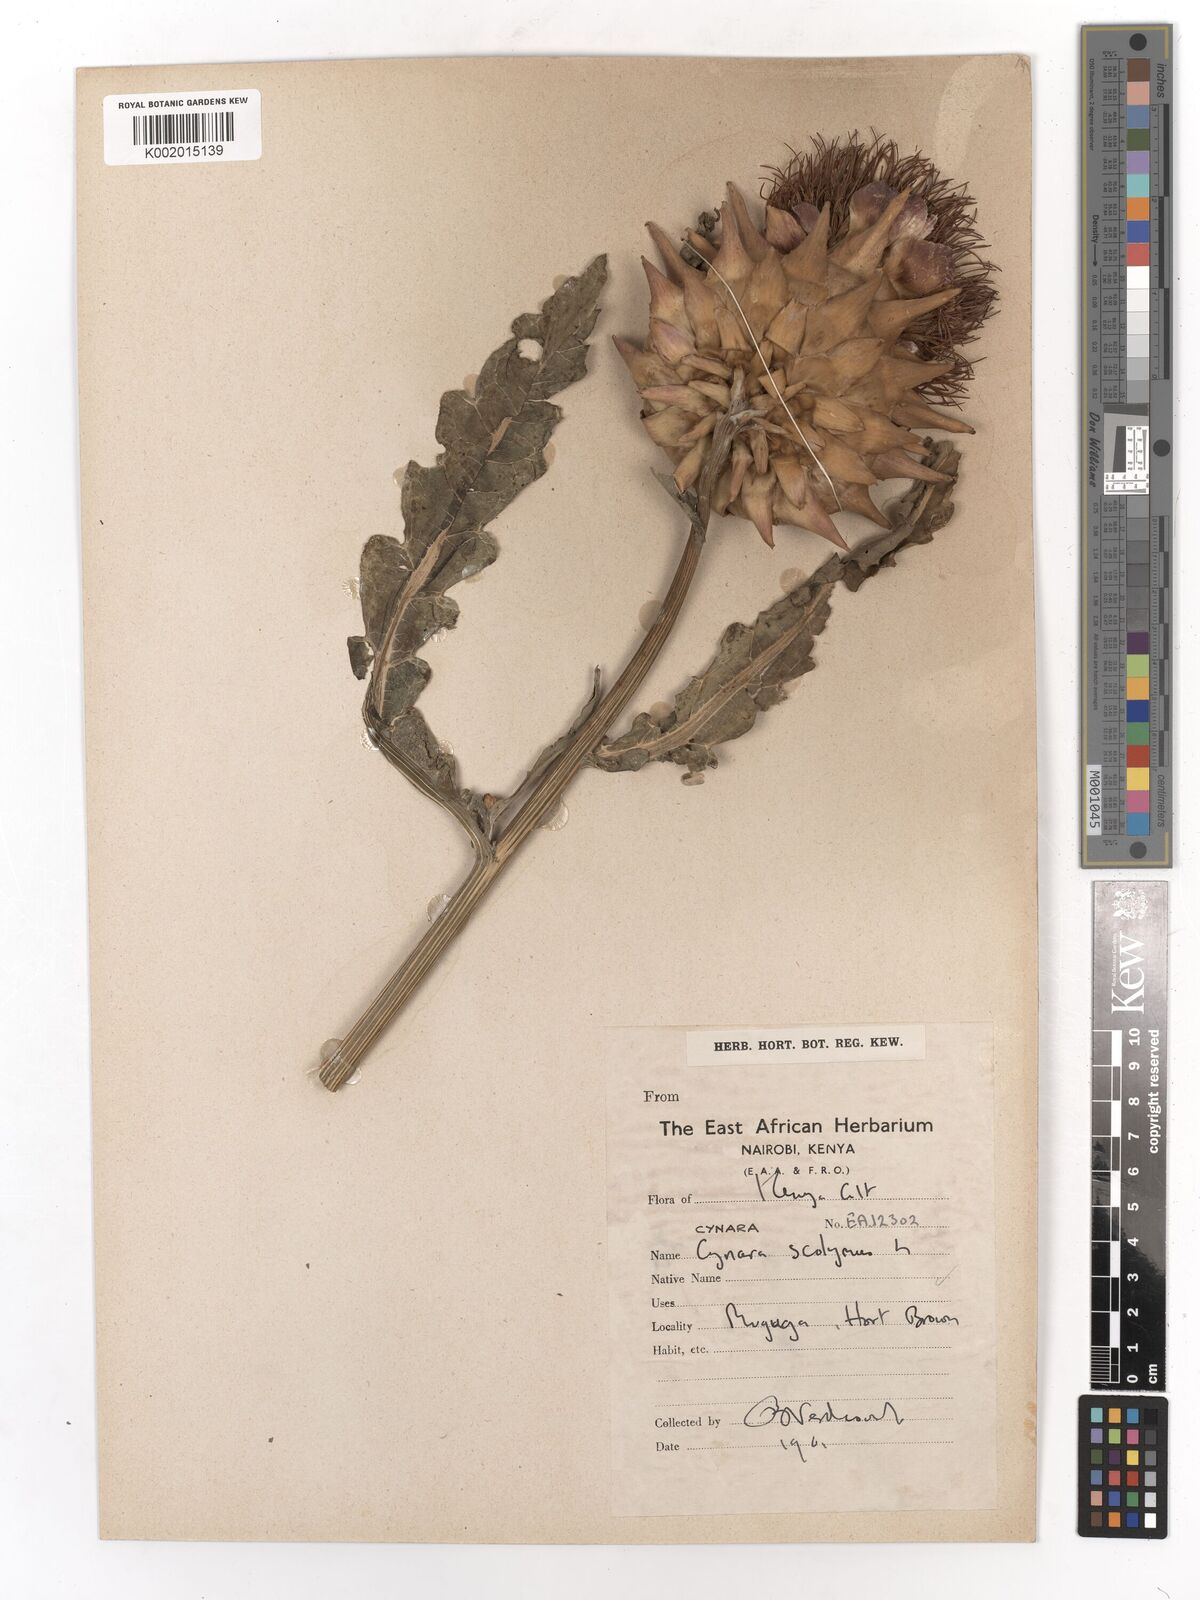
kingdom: Plantae
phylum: Tracheophyta
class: Magnoliopsida
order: Asterales
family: Asteraceae
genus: Cynara
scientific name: Cynara cardunculus
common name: Globe artichoke
